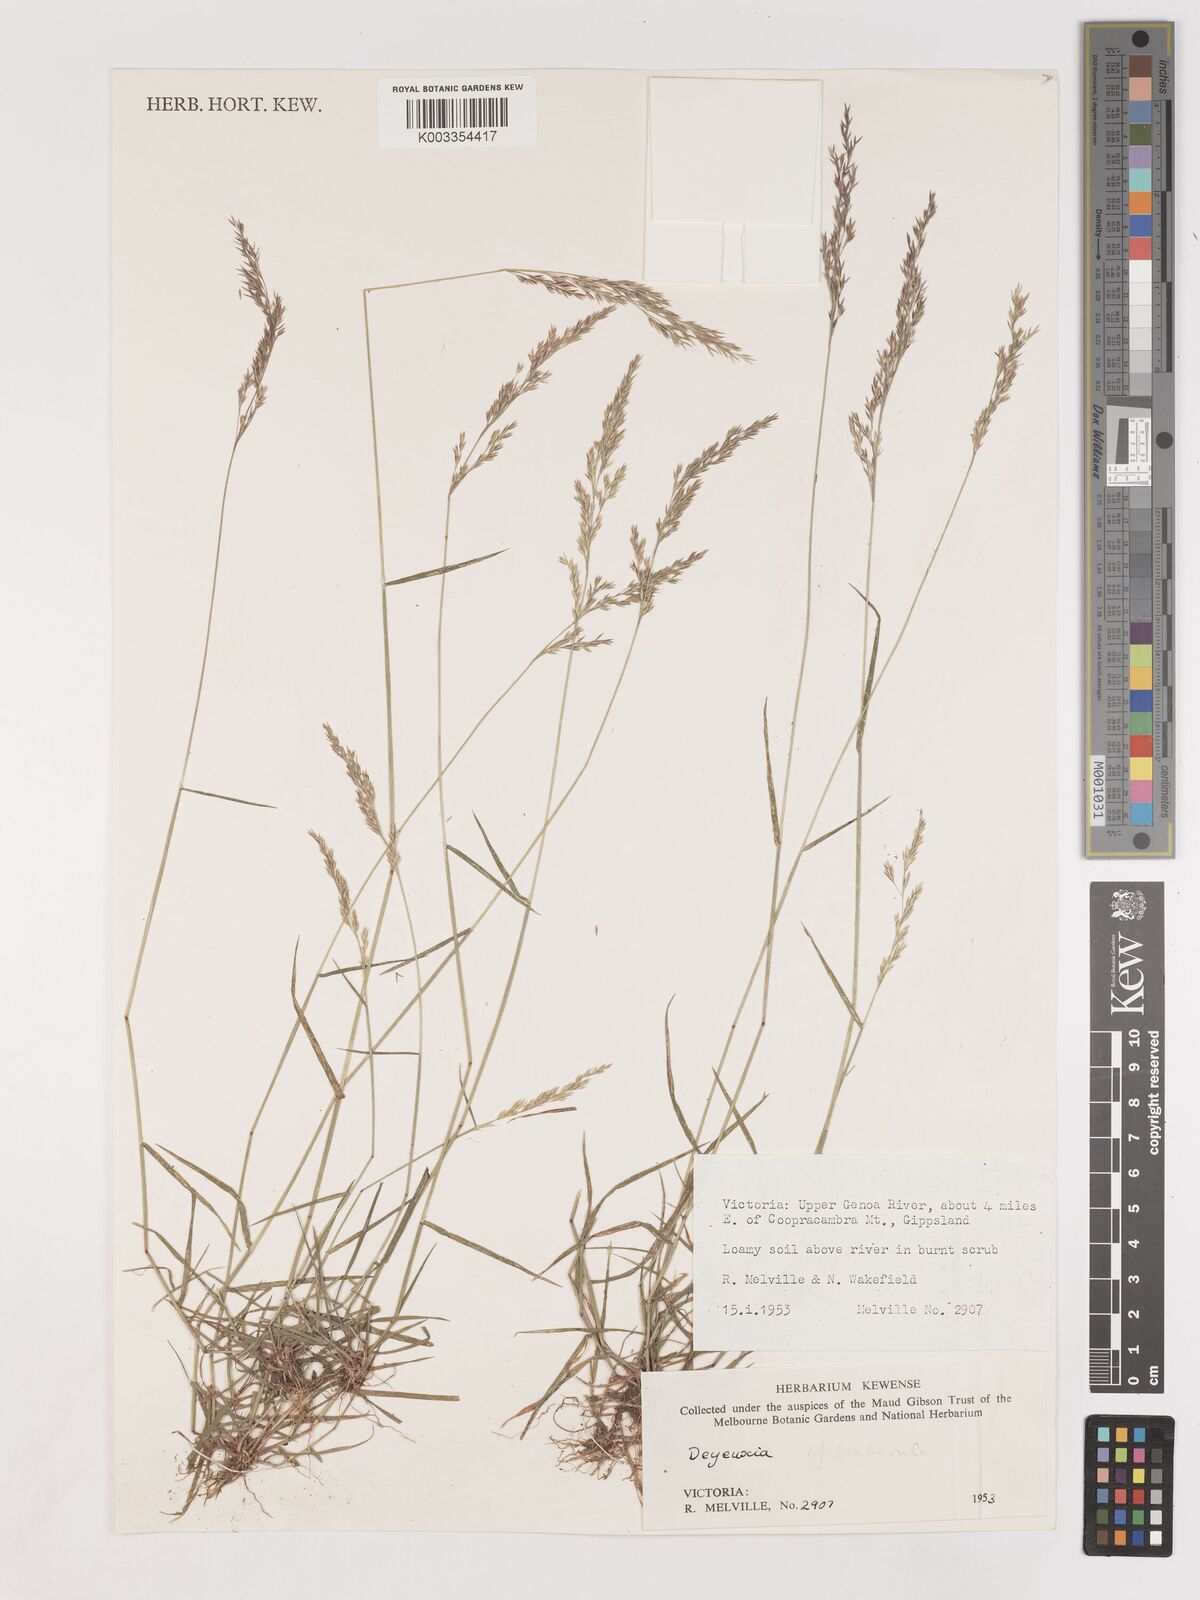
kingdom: Plantae
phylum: Tracheophyta
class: Liliopsida
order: Poales
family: Poaceae
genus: Calamagrostis
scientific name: Calamagrostis
